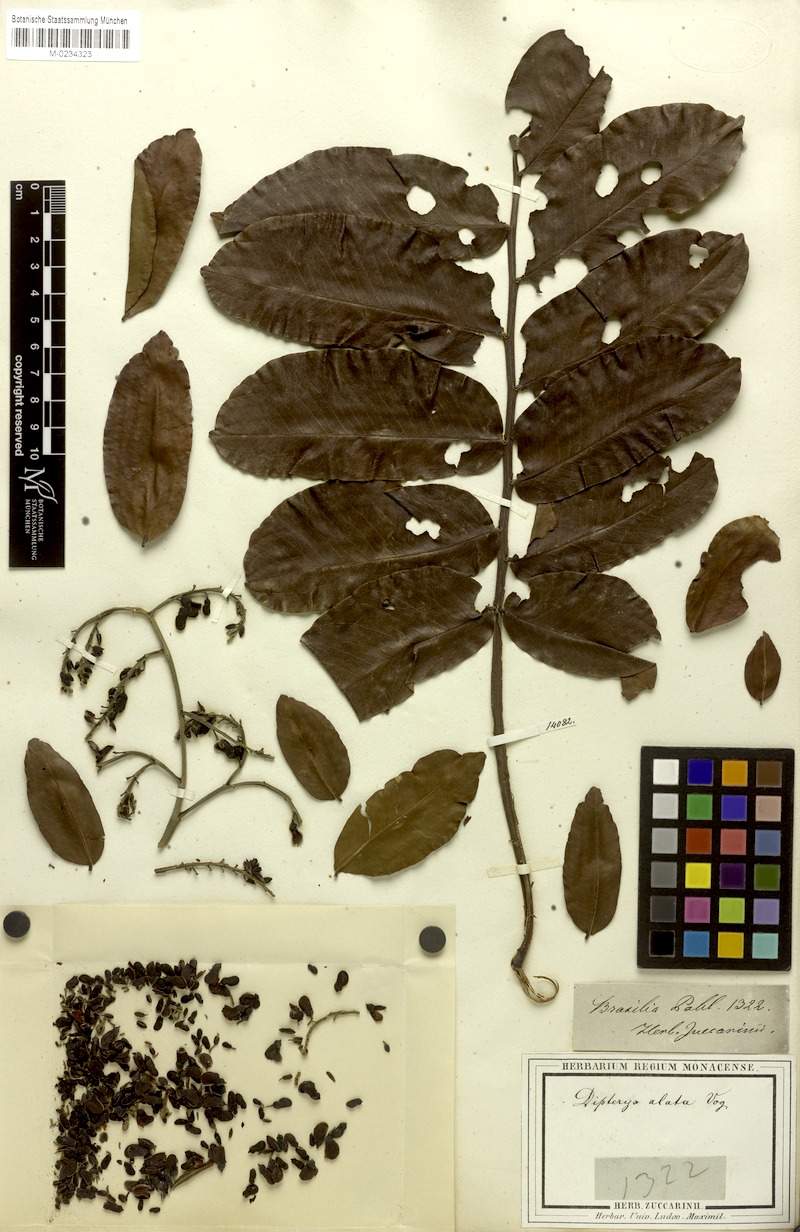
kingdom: Plantae
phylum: Tracheophyta
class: Magnoliopsida
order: Fabales
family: Fabaceae
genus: Dipteryx
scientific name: Dipteryx alata
